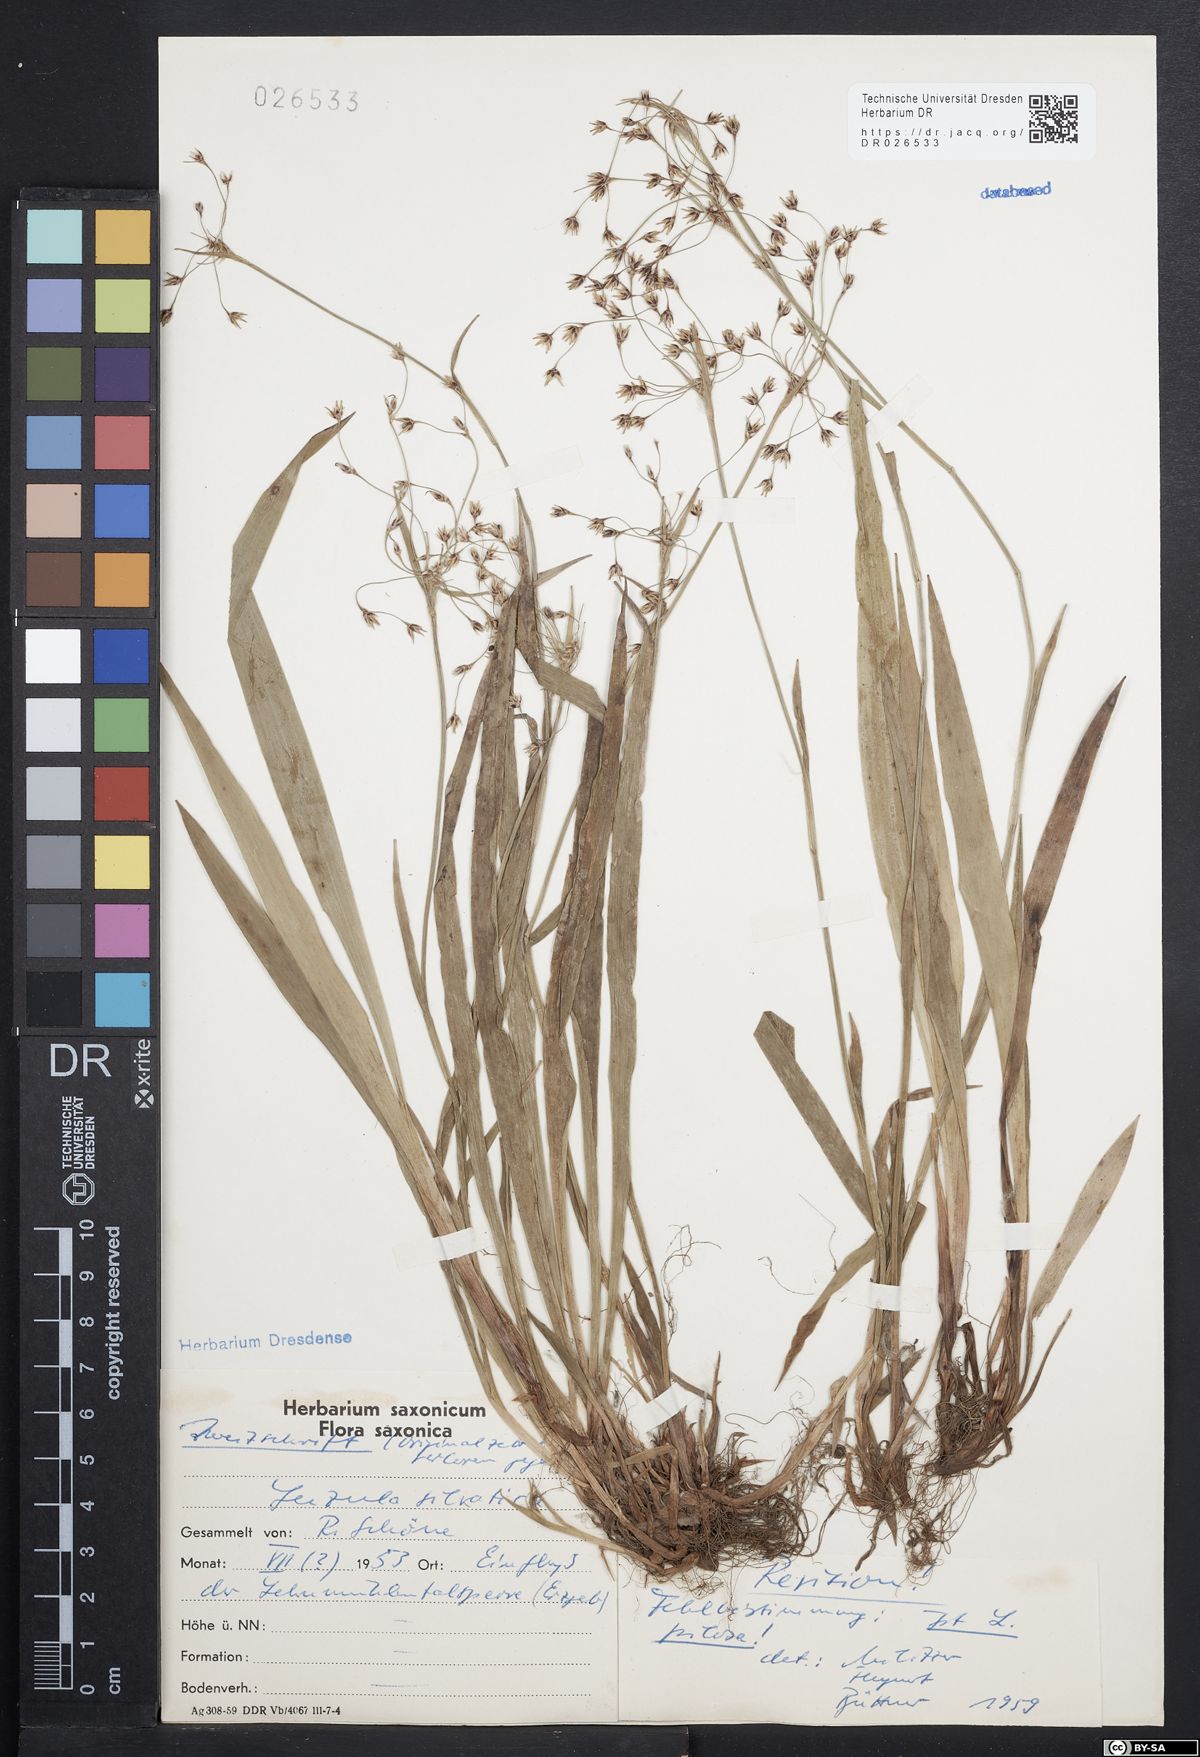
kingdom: Plantae
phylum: Tracheophyta
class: Liliopsida
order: Poales
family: Juncaceae
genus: Luzula
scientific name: Luzula pilosa
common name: Hairy wood-rush
